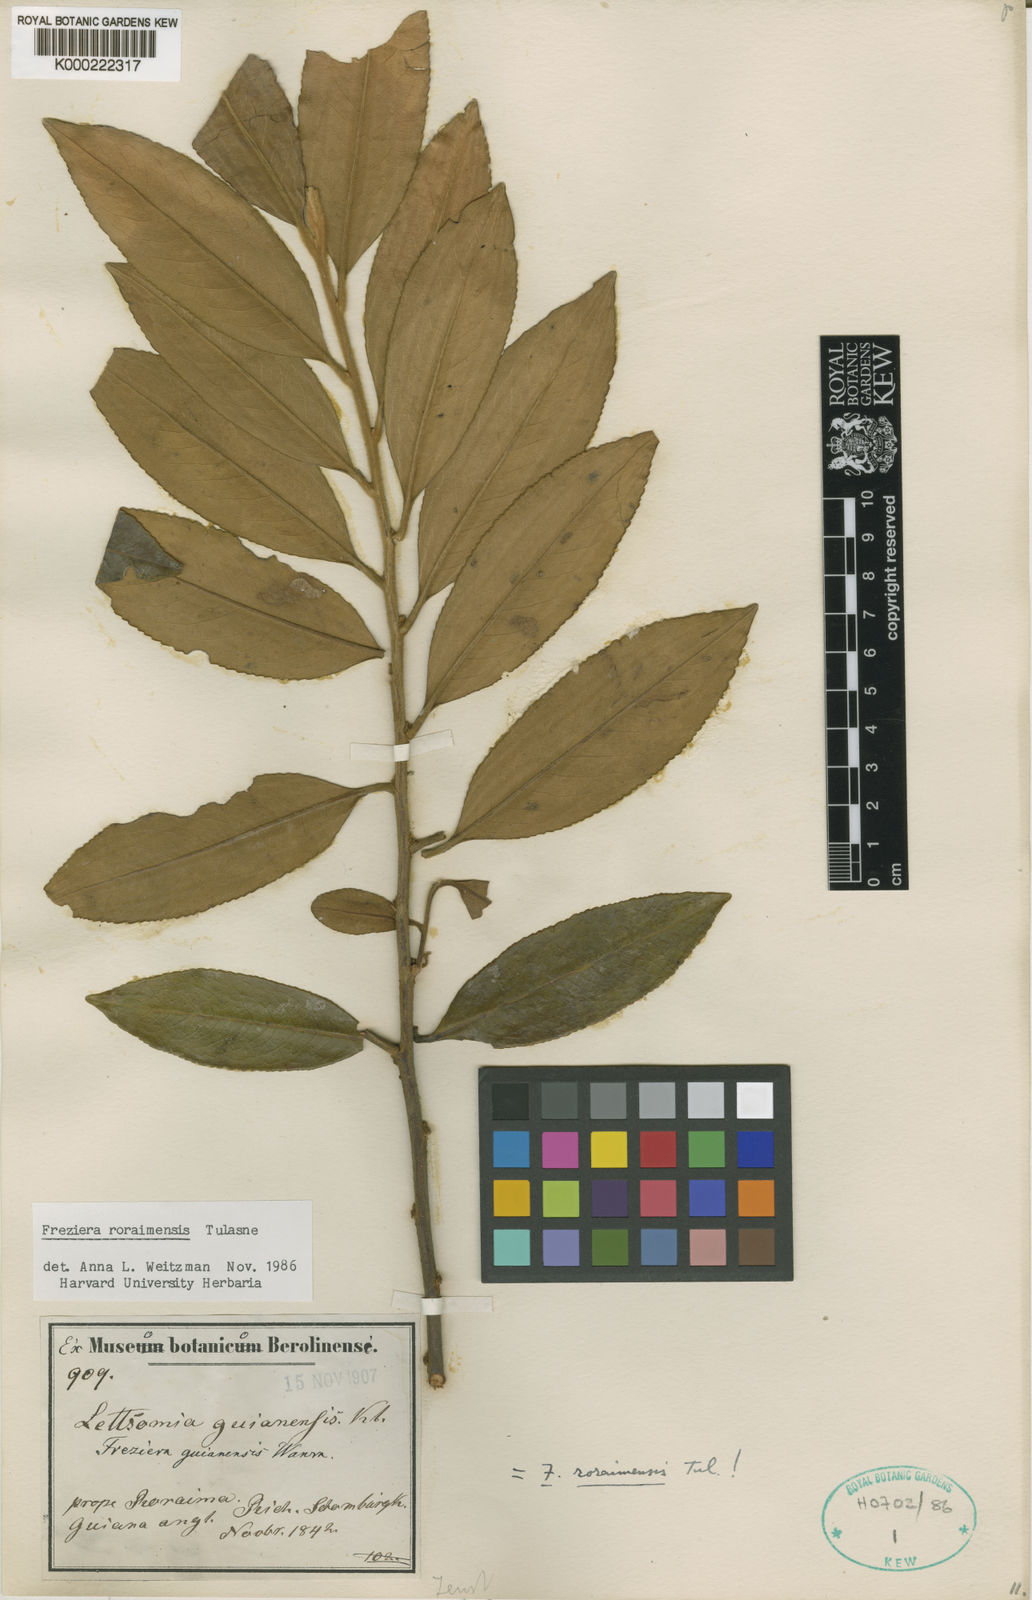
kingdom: Plantae
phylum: Tracheophyta
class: Magnoliopsida
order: Ericales
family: Pentaphylacaceae
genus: Freziera
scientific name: Freziera roraimensis
